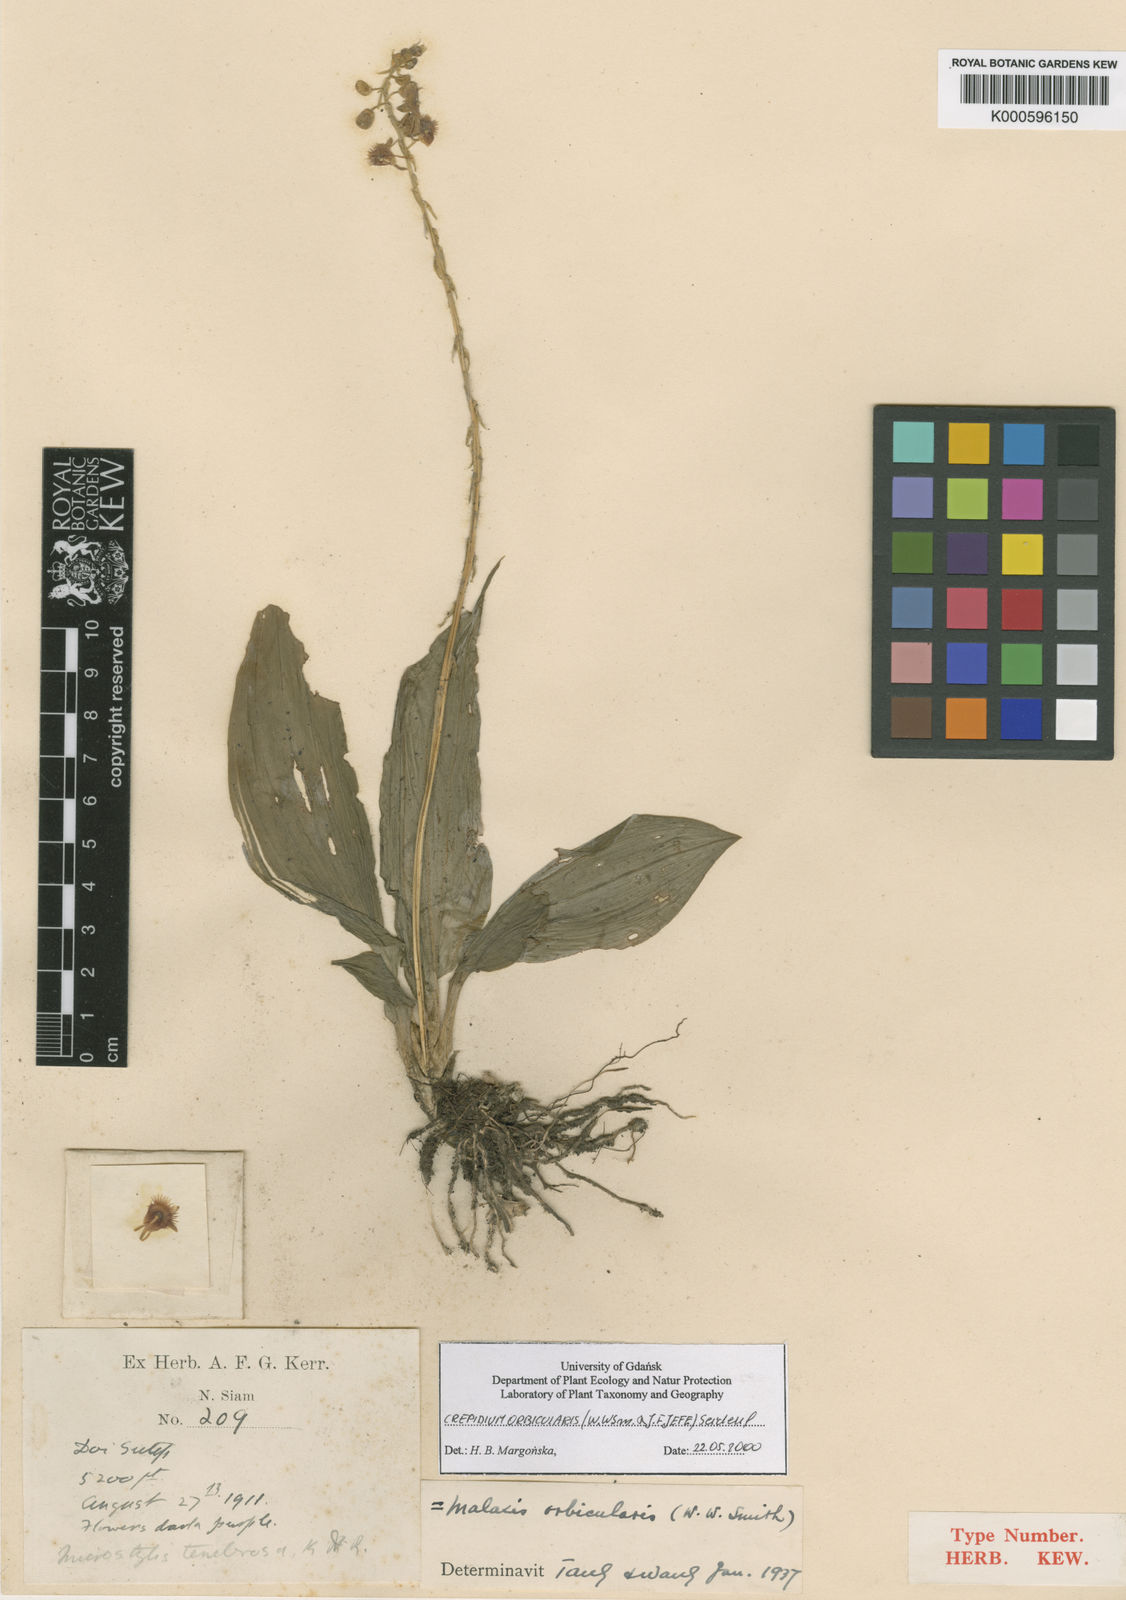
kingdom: Plantae
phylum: Tracheophyta
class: Liliopsida
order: Asparagales
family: Orchidaceae
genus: Crepidium
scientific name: Crepidium orbiculare
